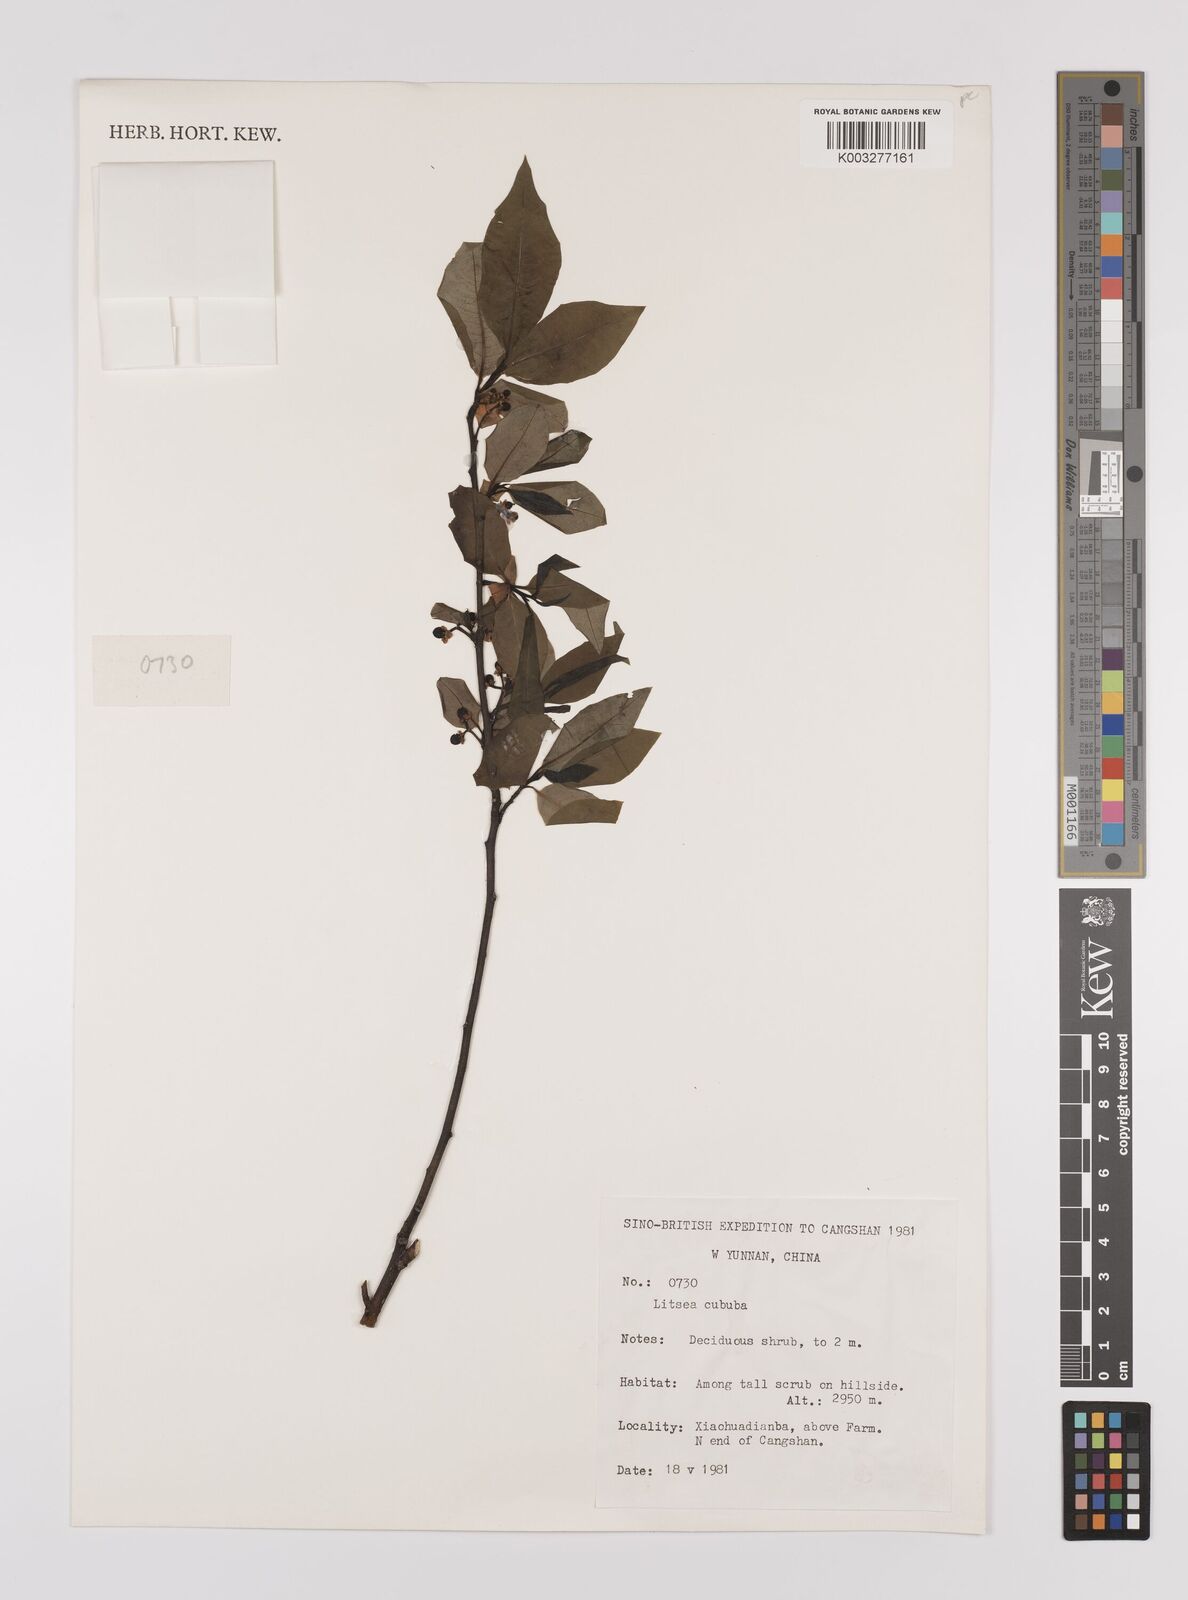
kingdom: Plantae
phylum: Tracheophyta
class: Magnoliopsida
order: Laurales
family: Lauraceae
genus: Litsea
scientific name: Litsea cubeba
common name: Mountain-pepper
